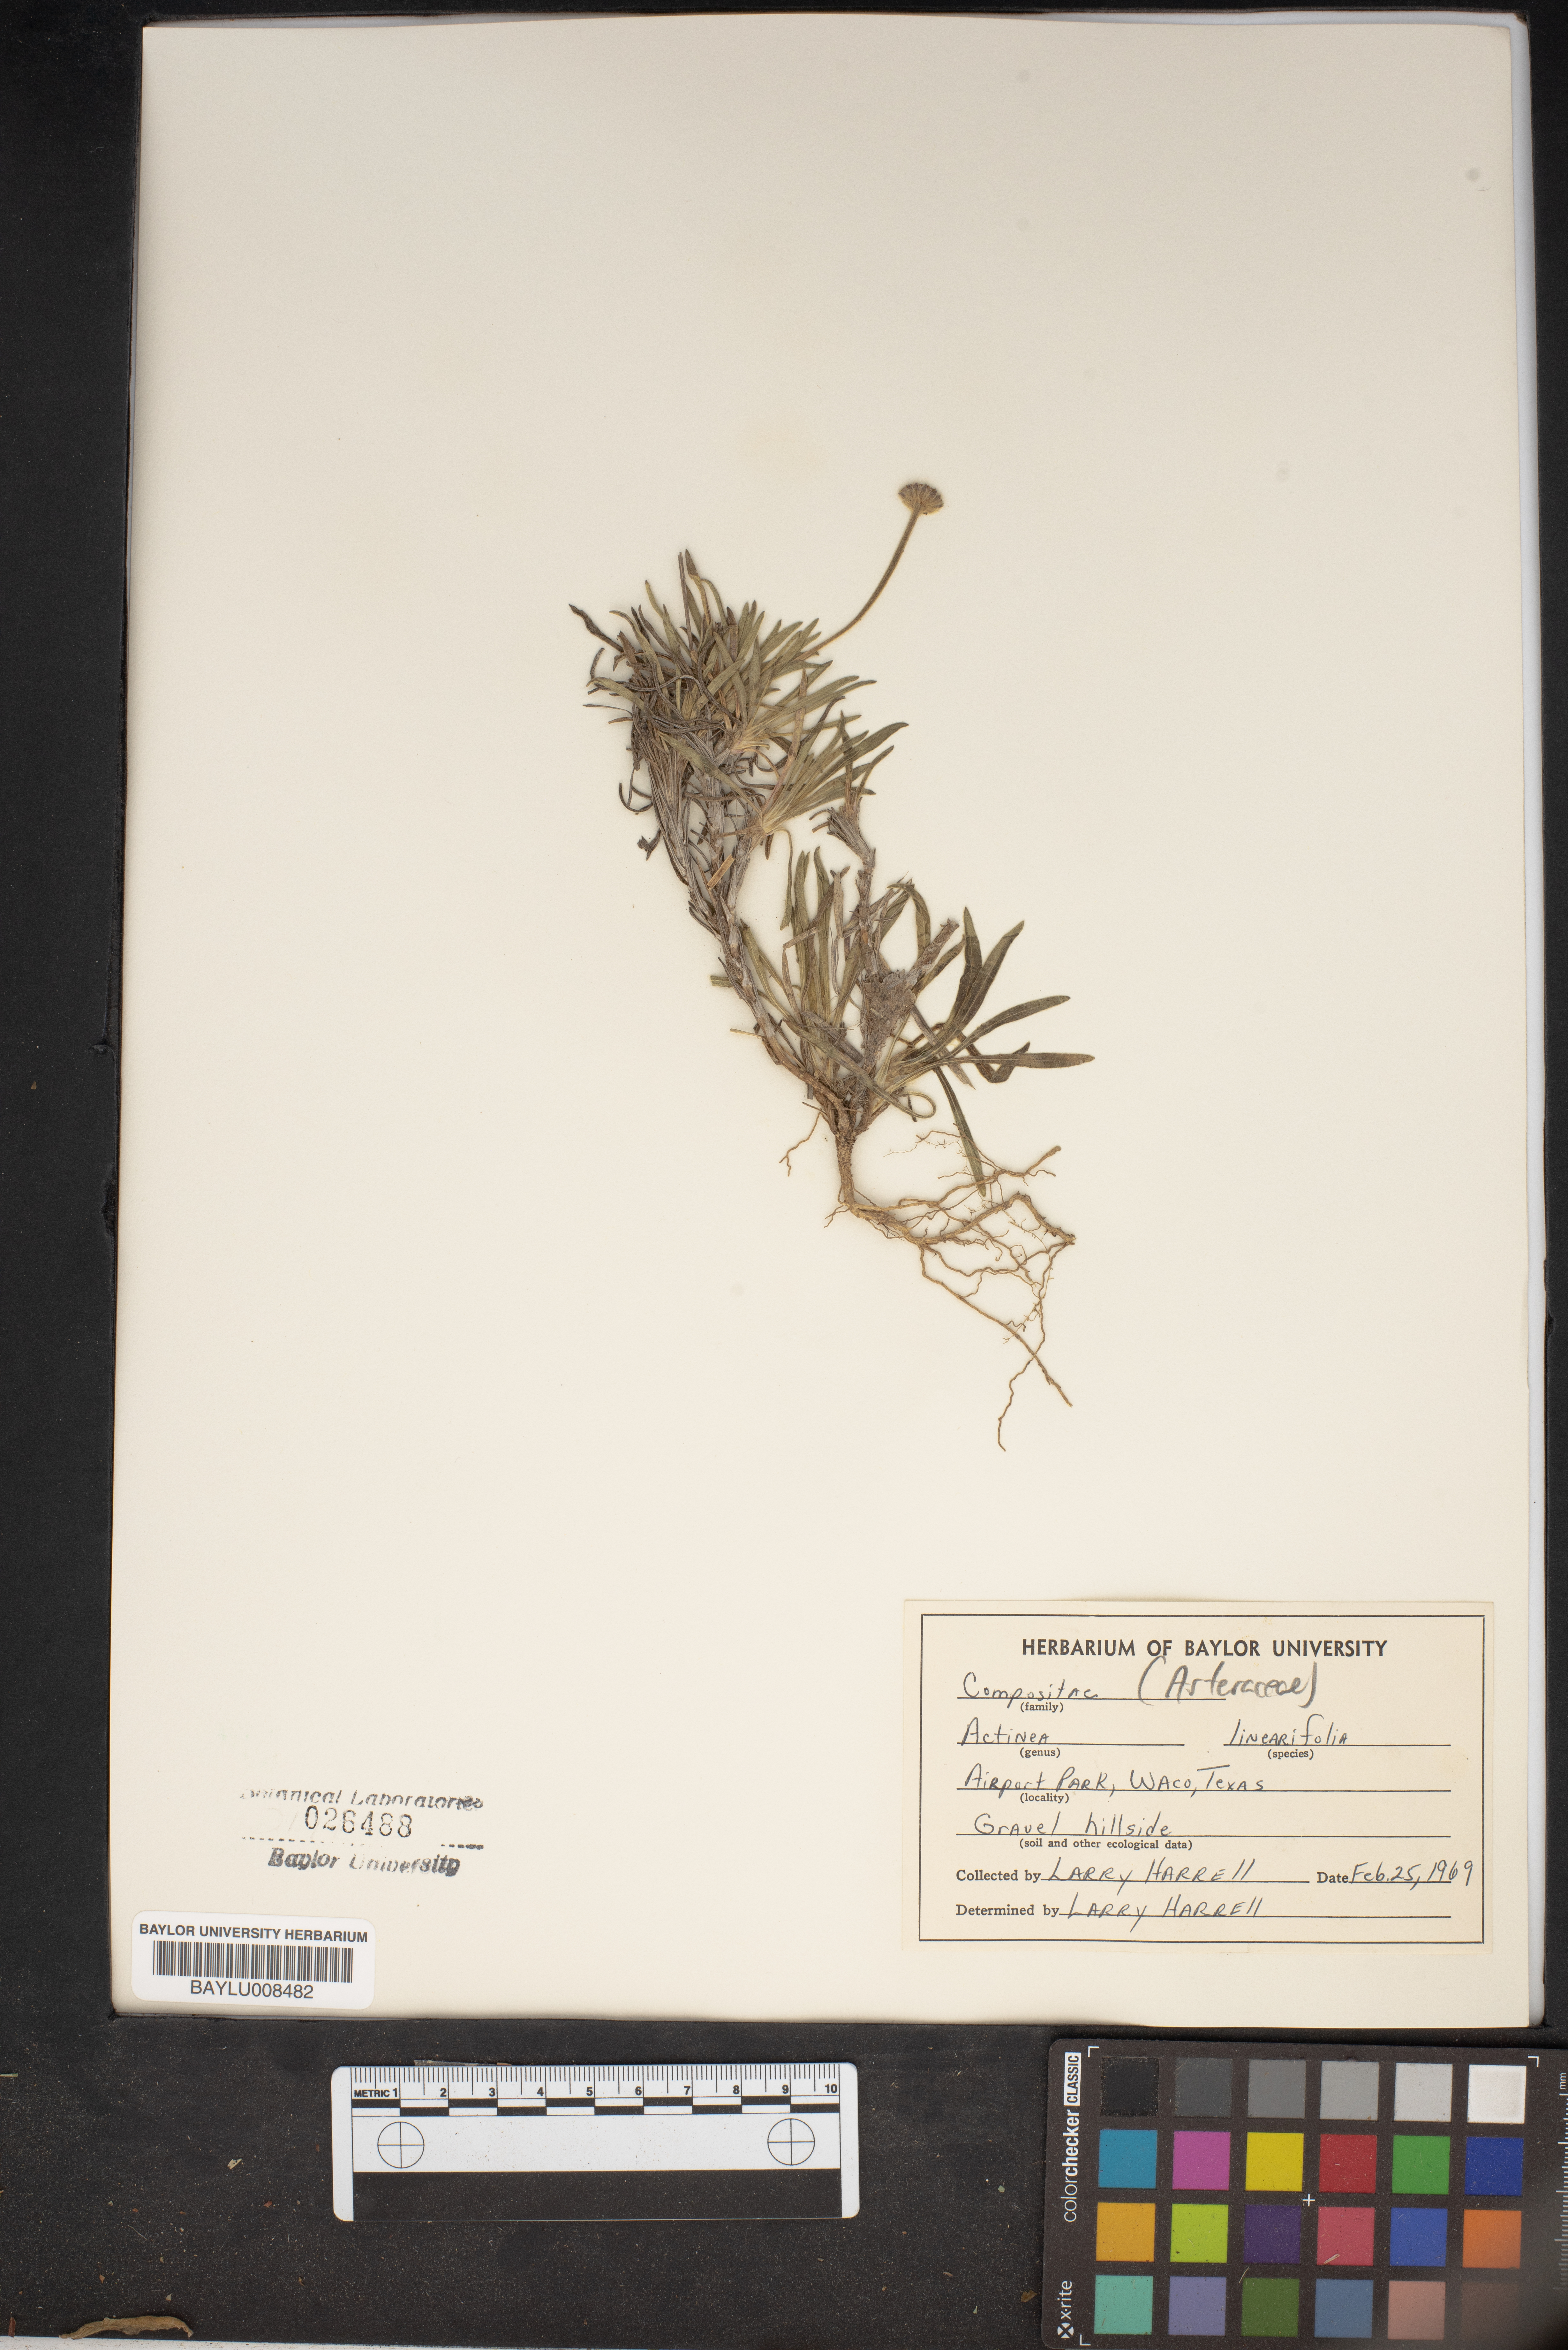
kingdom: Plantae
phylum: Tracheophyta
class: Magnoliopsida
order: Asterales
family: Asteraceae
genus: Tetraneuris
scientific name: Tetraneuris linearifolia
